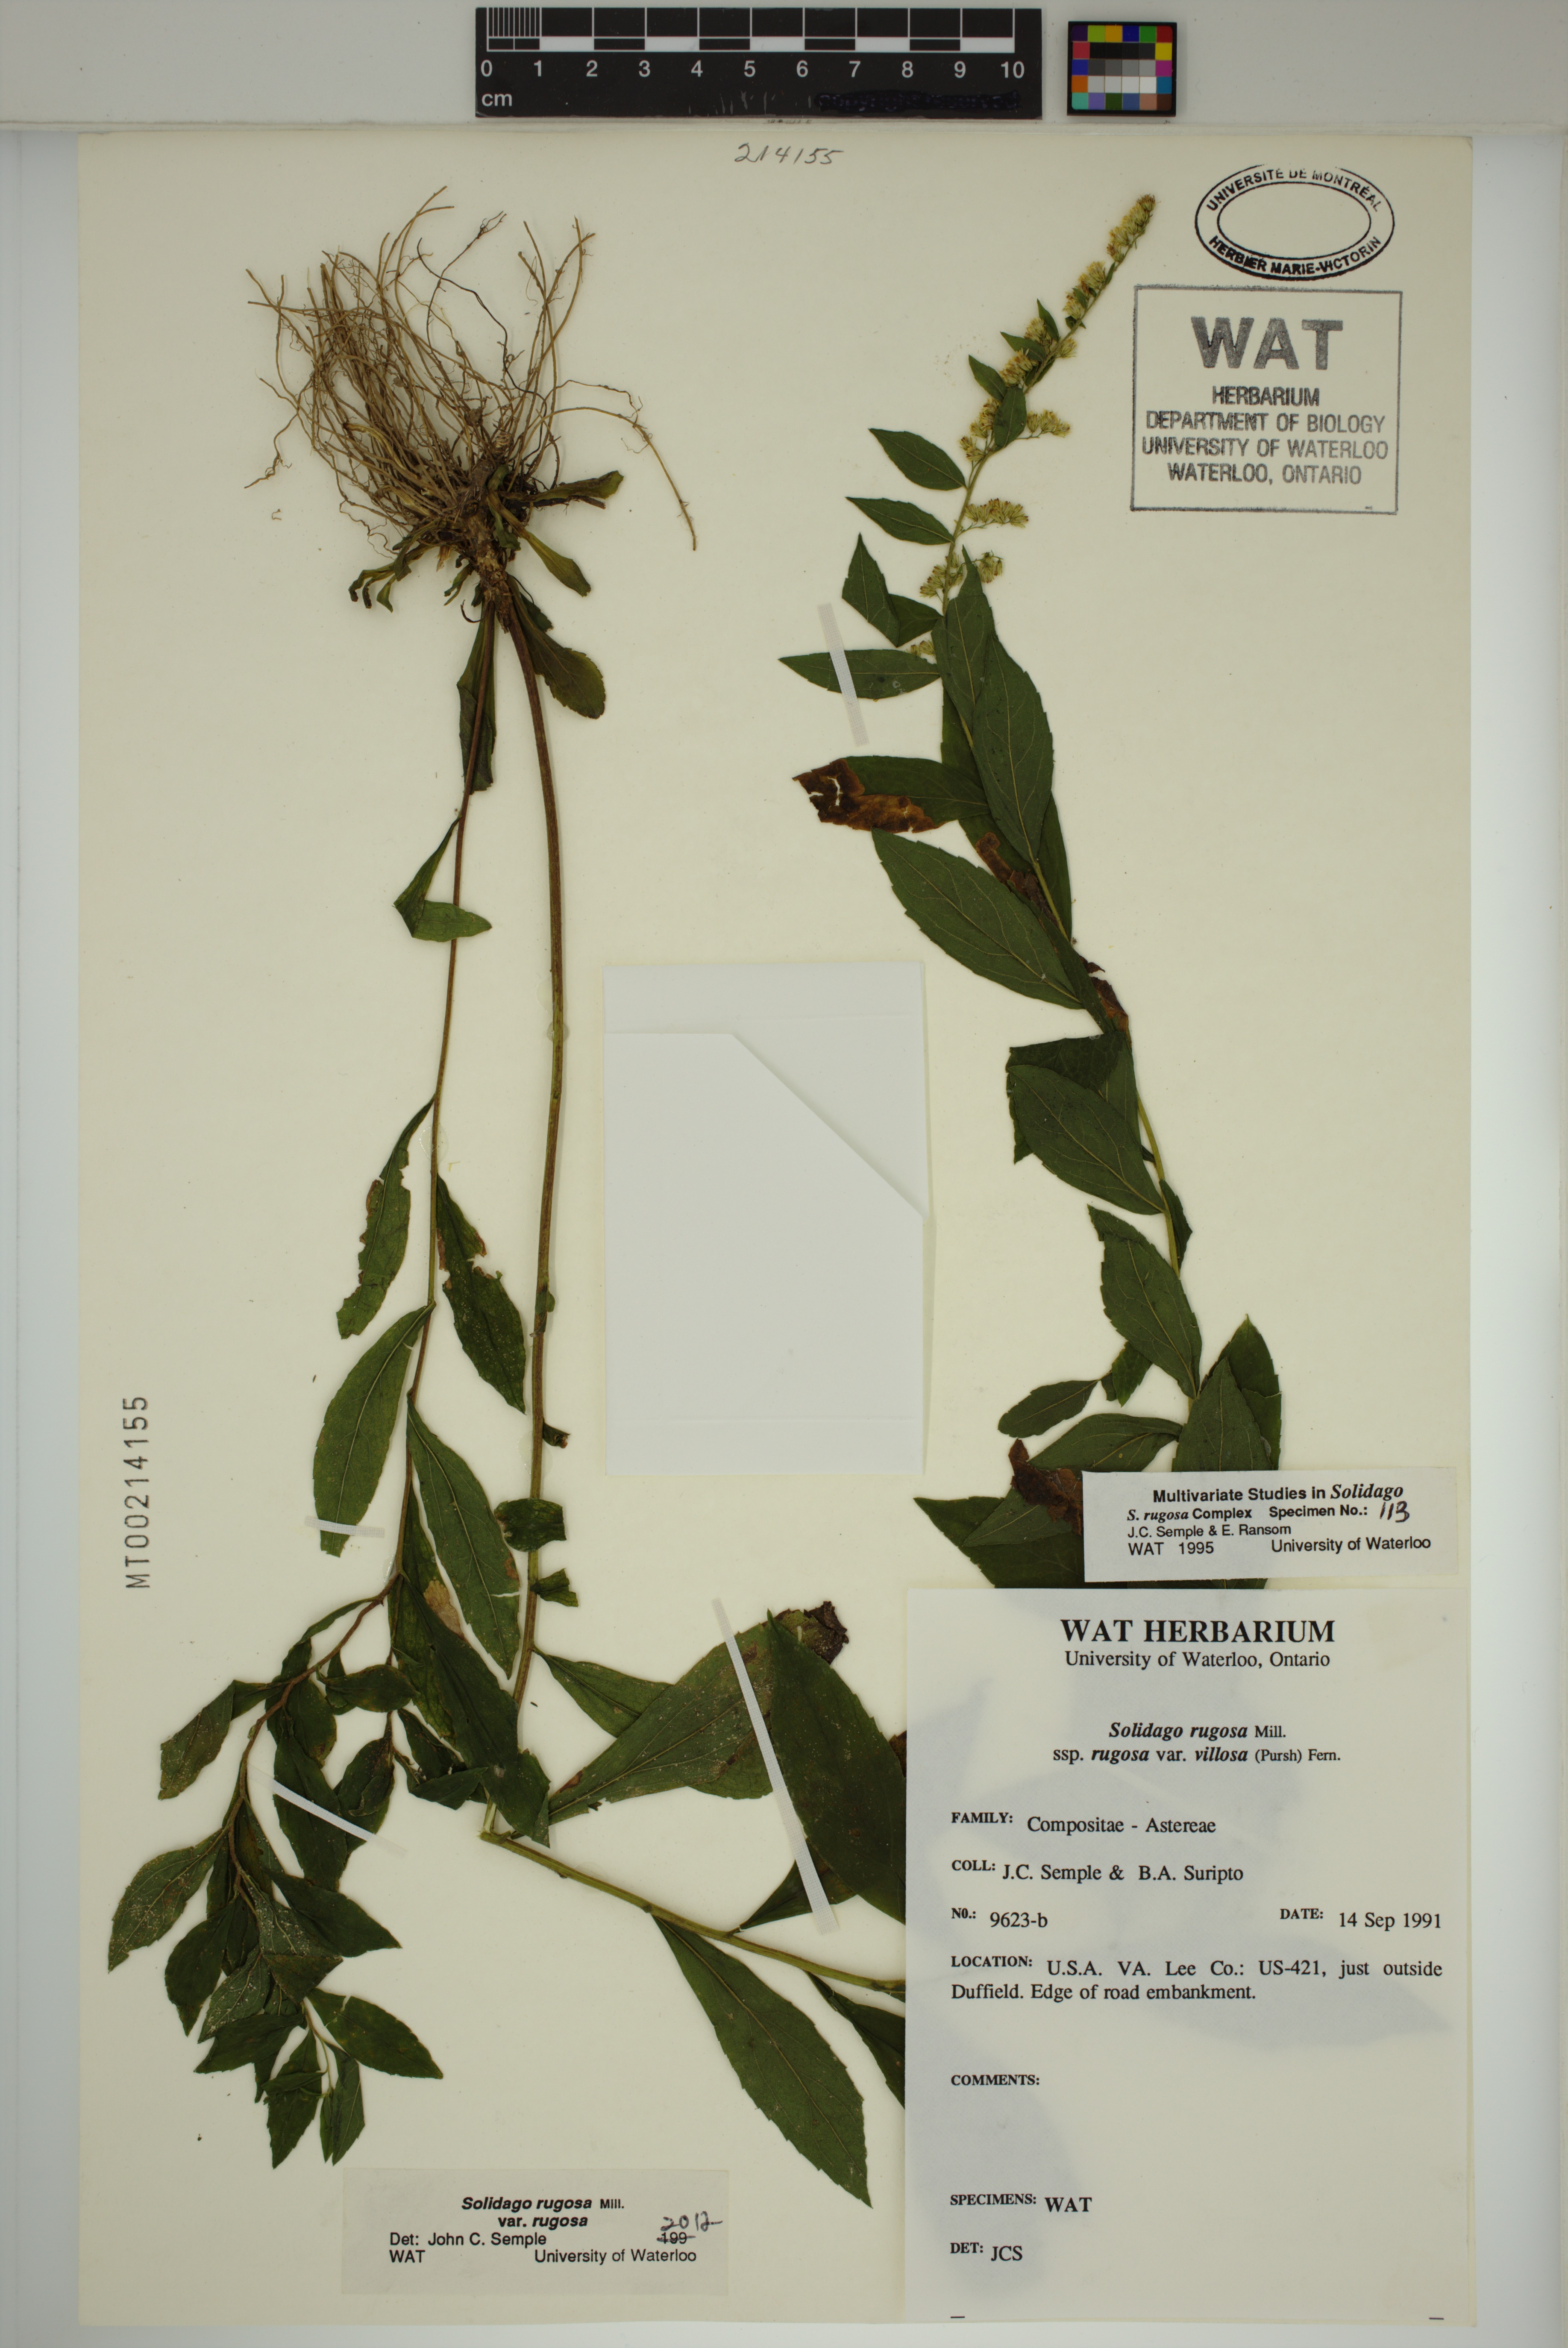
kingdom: Plantae
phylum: Tracheophyta
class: Magnoliopsida
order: Asterales
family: Asteraceae
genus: Solidago
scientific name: Solidago rugosa
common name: Rough-stemmed goldenrod
